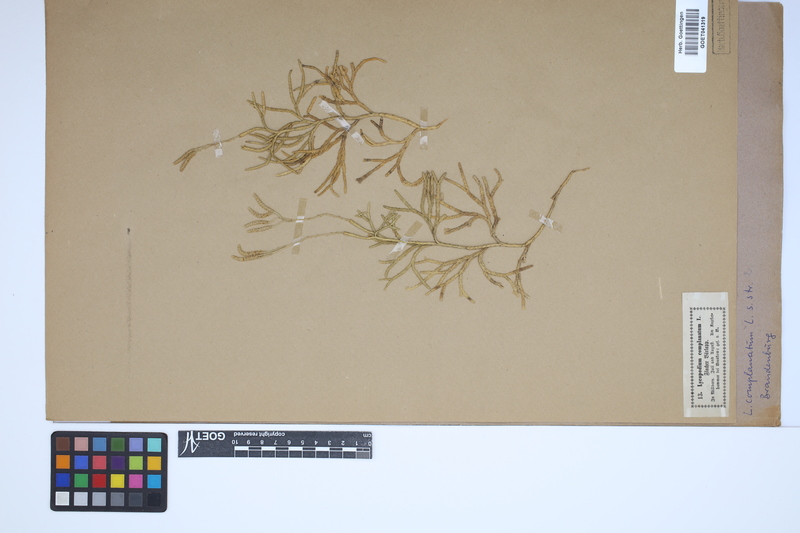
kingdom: Plantae
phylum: Tracheophyta
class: Lycopodiopsida
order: Lycopodiales
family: Lycopodiaceae
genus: Diphasiastrum
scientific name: Diphasiastrum complanatum
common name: Northern running-pine
